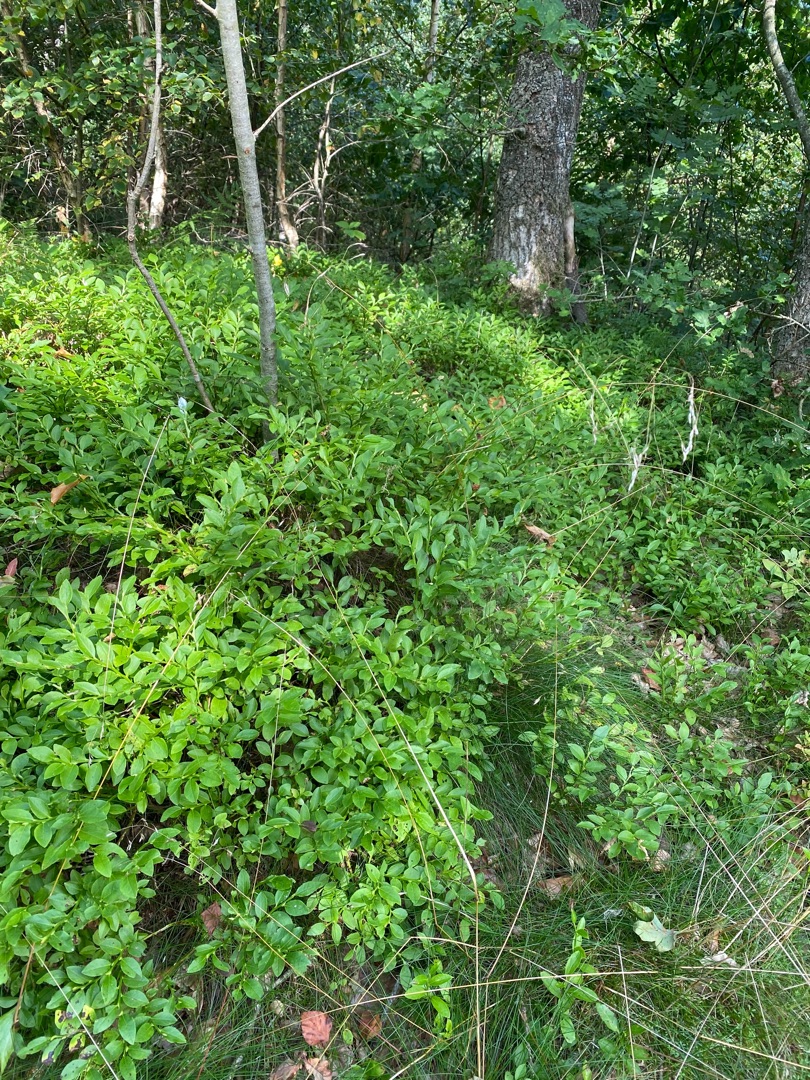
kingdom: Plantae
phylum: Tracheophyta
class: Magnoliopsida
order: Ericales
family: Ericaceae
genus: Vaccinium
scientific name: Vaccinium myrtillus
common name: Blåbær
